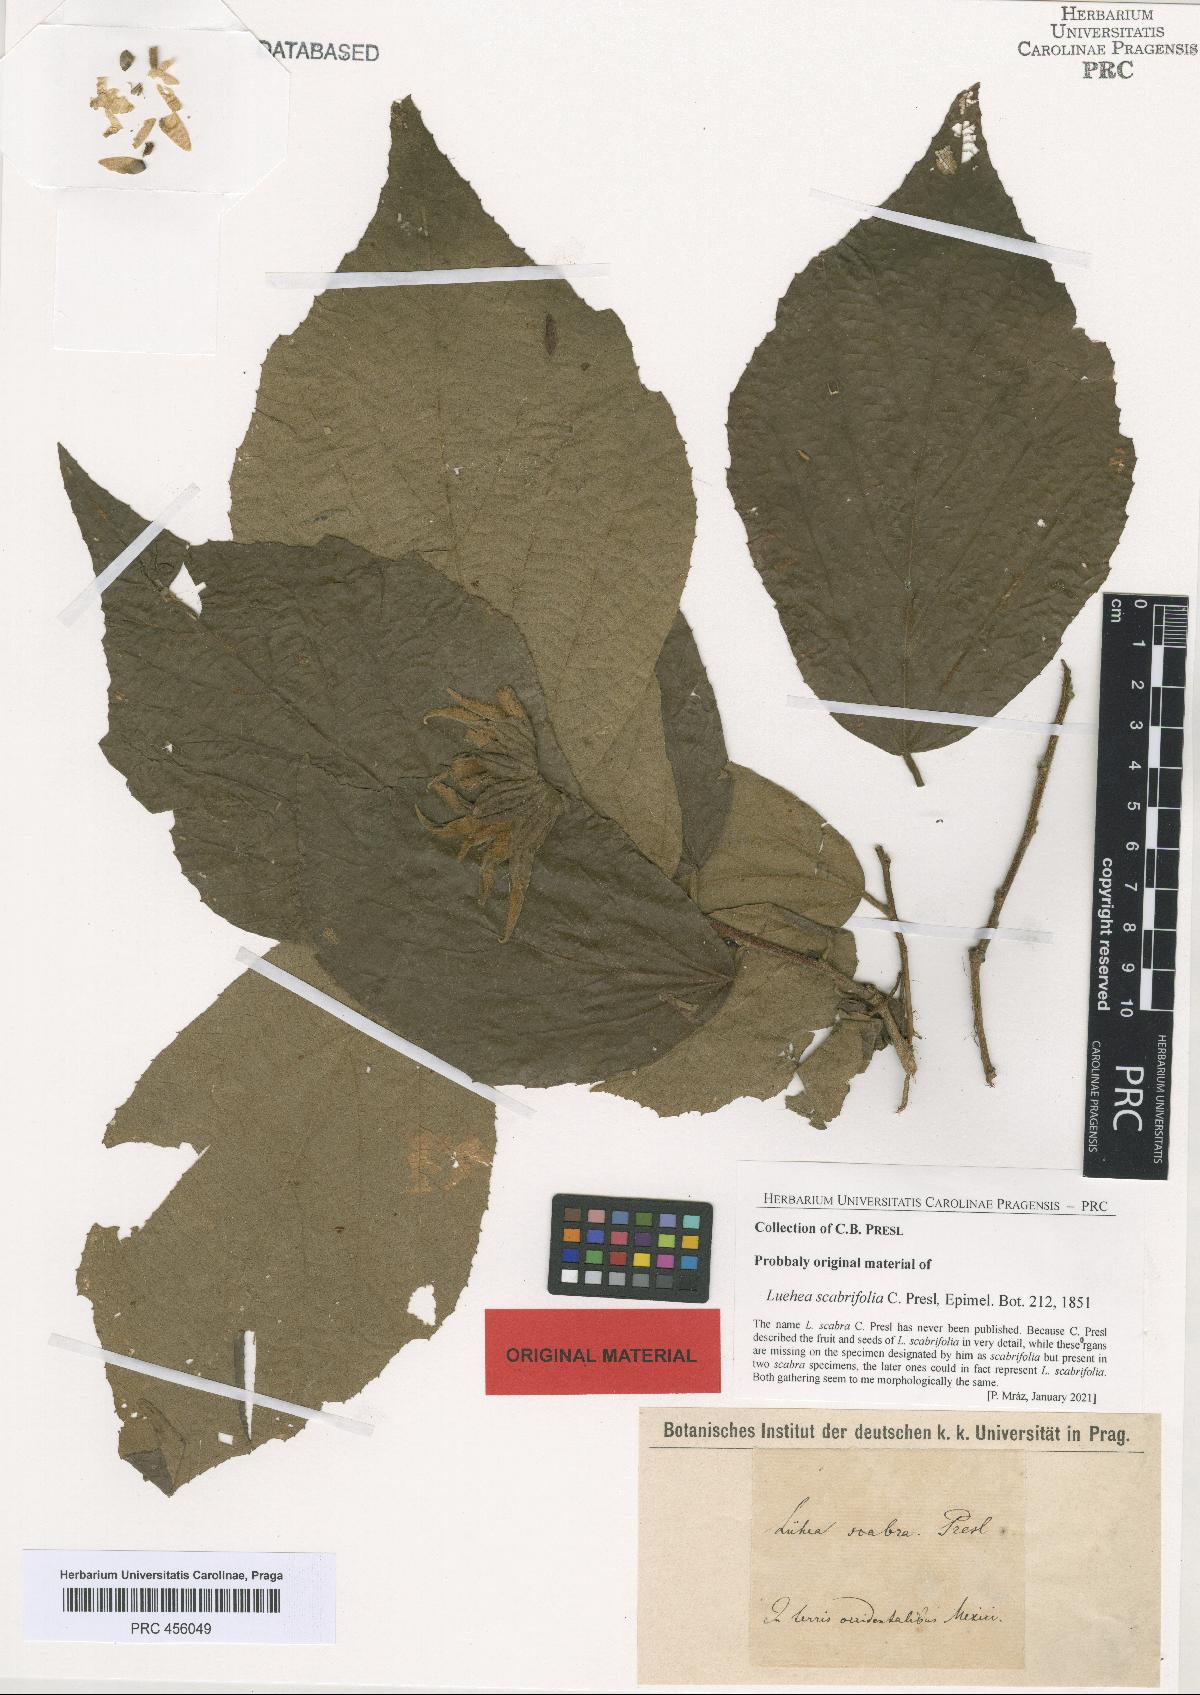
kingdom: Plantae
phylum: Tracheophyta
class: Magnoliopsida
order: Malvales
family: Malvaceae
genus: Luehea
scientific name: Luehea candida
